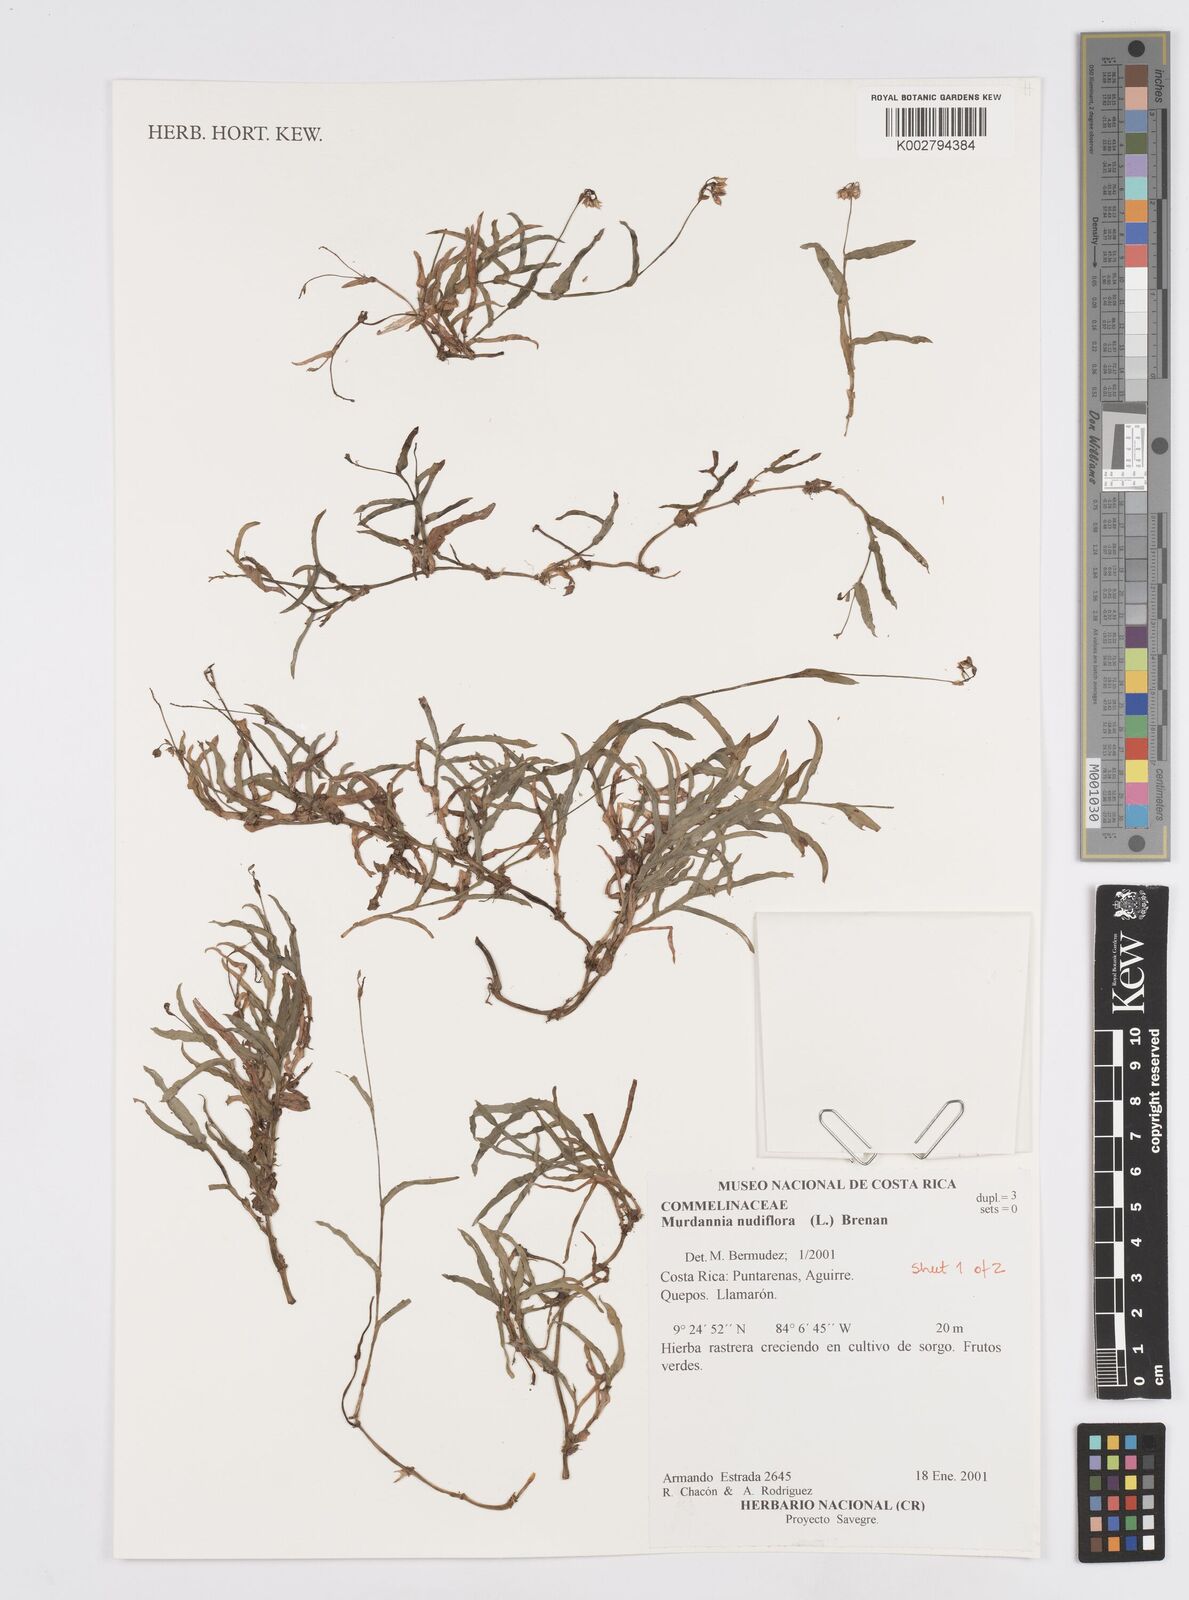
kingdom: Plantae
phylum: Tracheophyta
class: Liliopsida
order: Commelinales
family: Commelinaceae
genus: Murdannia
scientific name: Murdannia nudiflora
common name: Nakedstem dewflower
